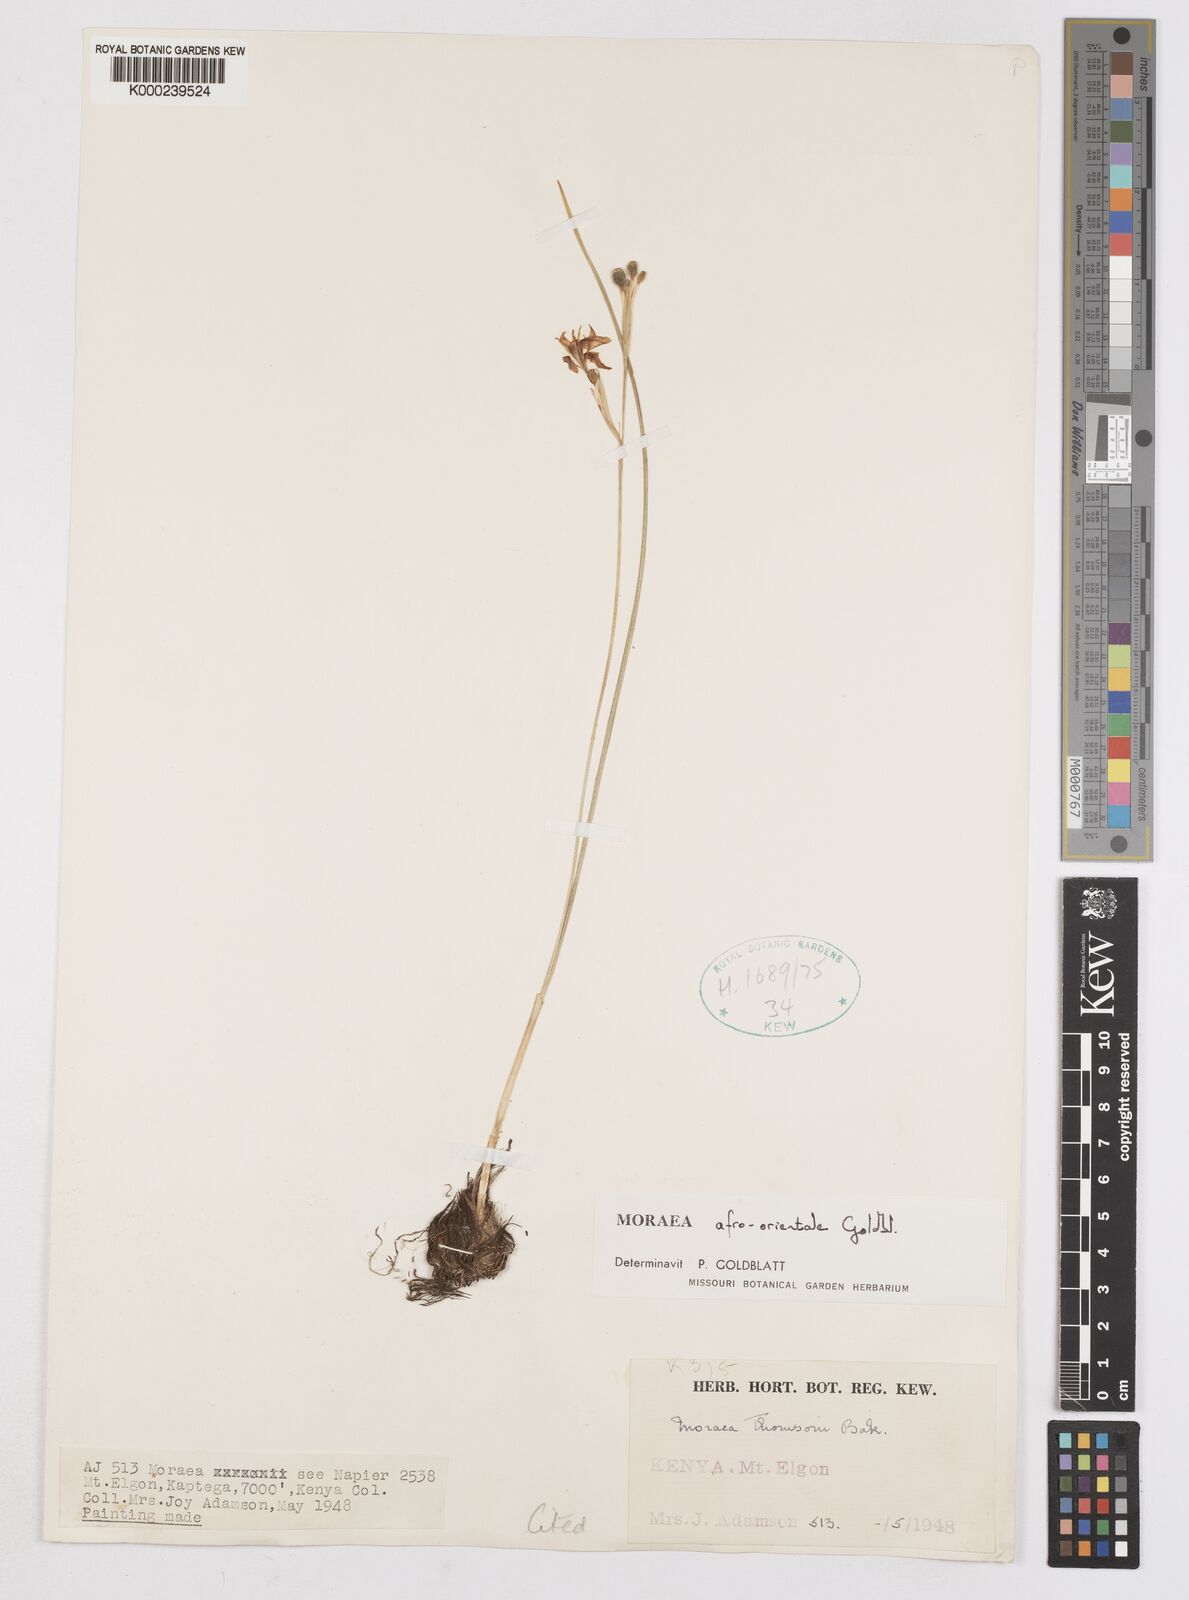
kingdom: Plantae
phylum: Tracheophyta
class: Liliopsida
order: Asparagales
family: Iridaceae
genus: Moraea
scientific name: Moraea
